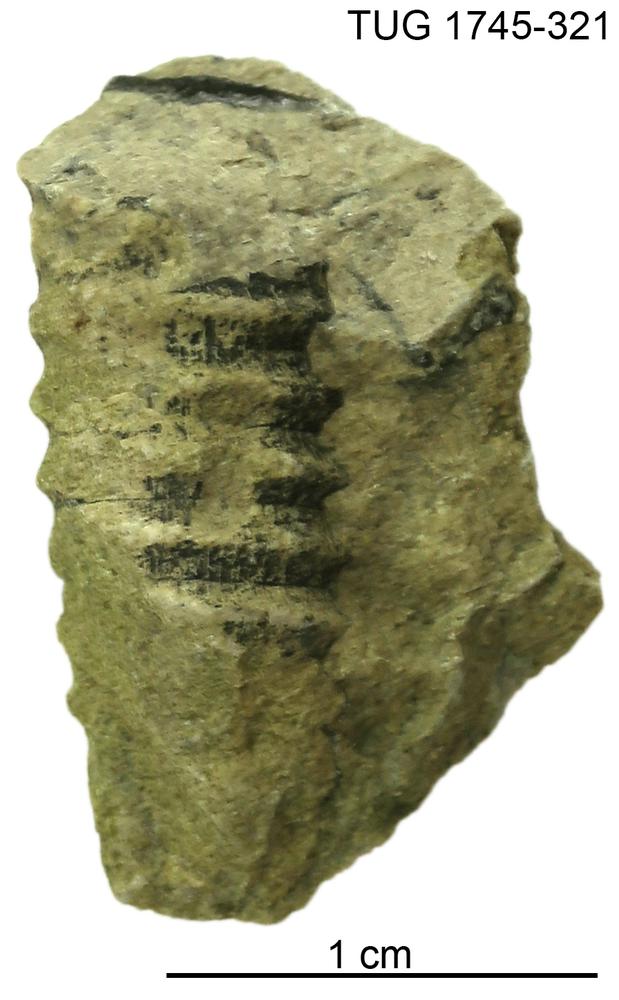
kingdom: Animalia
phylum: Mollusca
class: Cephalopoda
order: Orthocerida
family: Dawsonoceratidae
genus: Palaeodawsonocerina
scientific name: Palaeodawsonocerina Spyroceras senckenbergi
